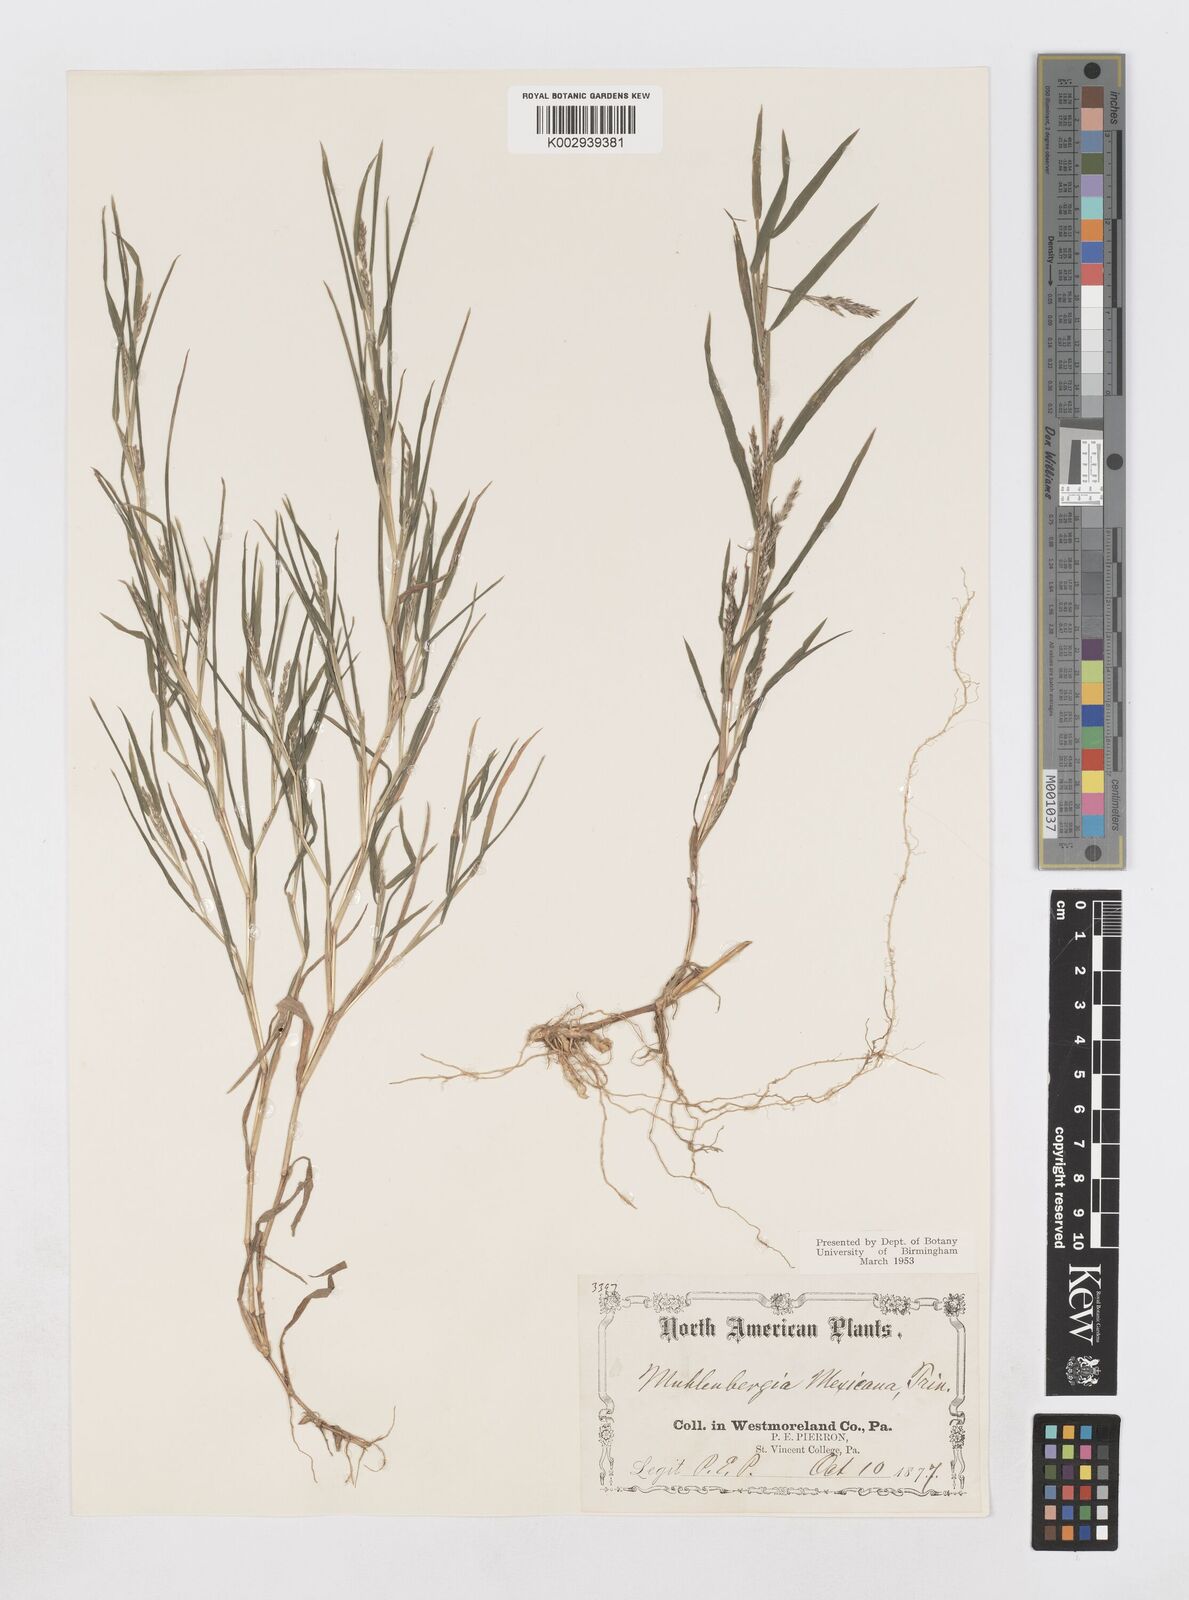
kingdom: Plantae
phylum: Tracheophyta
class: Liliopsida
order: Poales
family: Poaceae
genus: Muhlenbergia
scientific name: Muhlenbergia mexicana
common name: Mexican muhly
